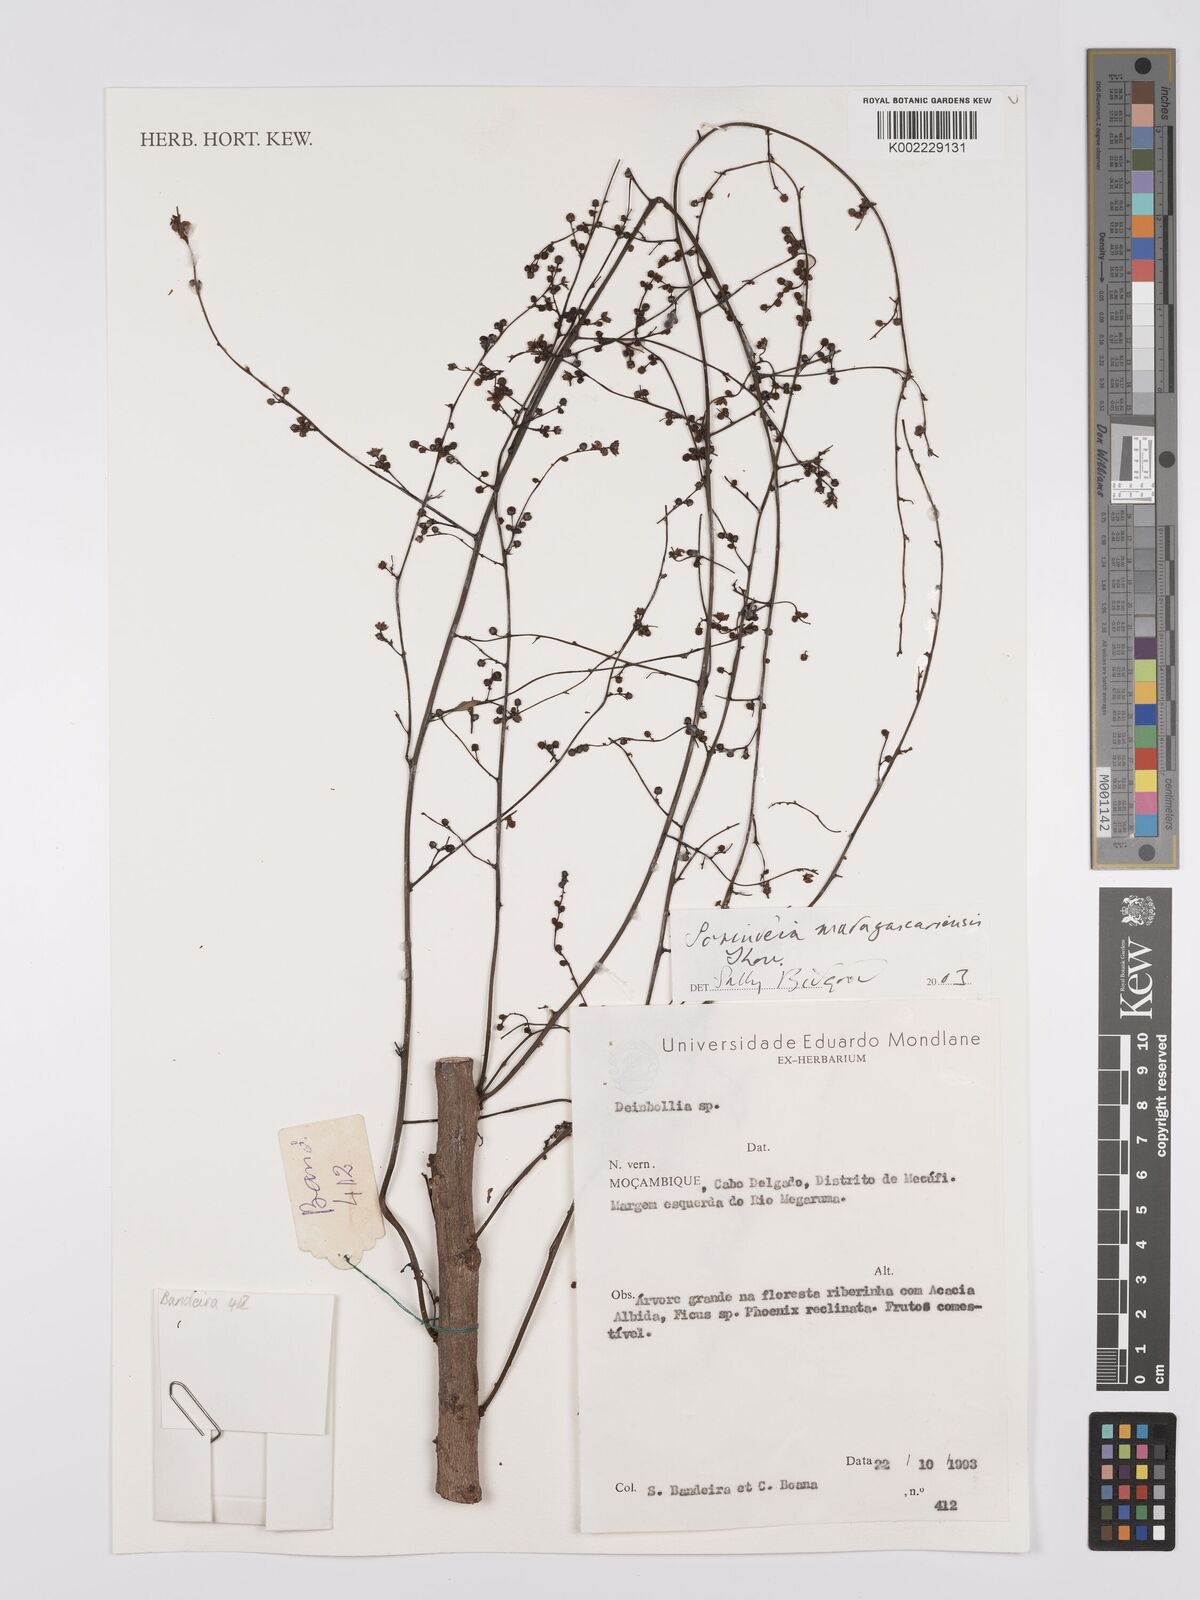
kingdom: Plantae
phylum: Tracheophyta
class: Magnoliopsida
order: Sapindales
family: Anacardiaceae
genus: Sorindeia
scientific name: Sorindeia madagascariensis
